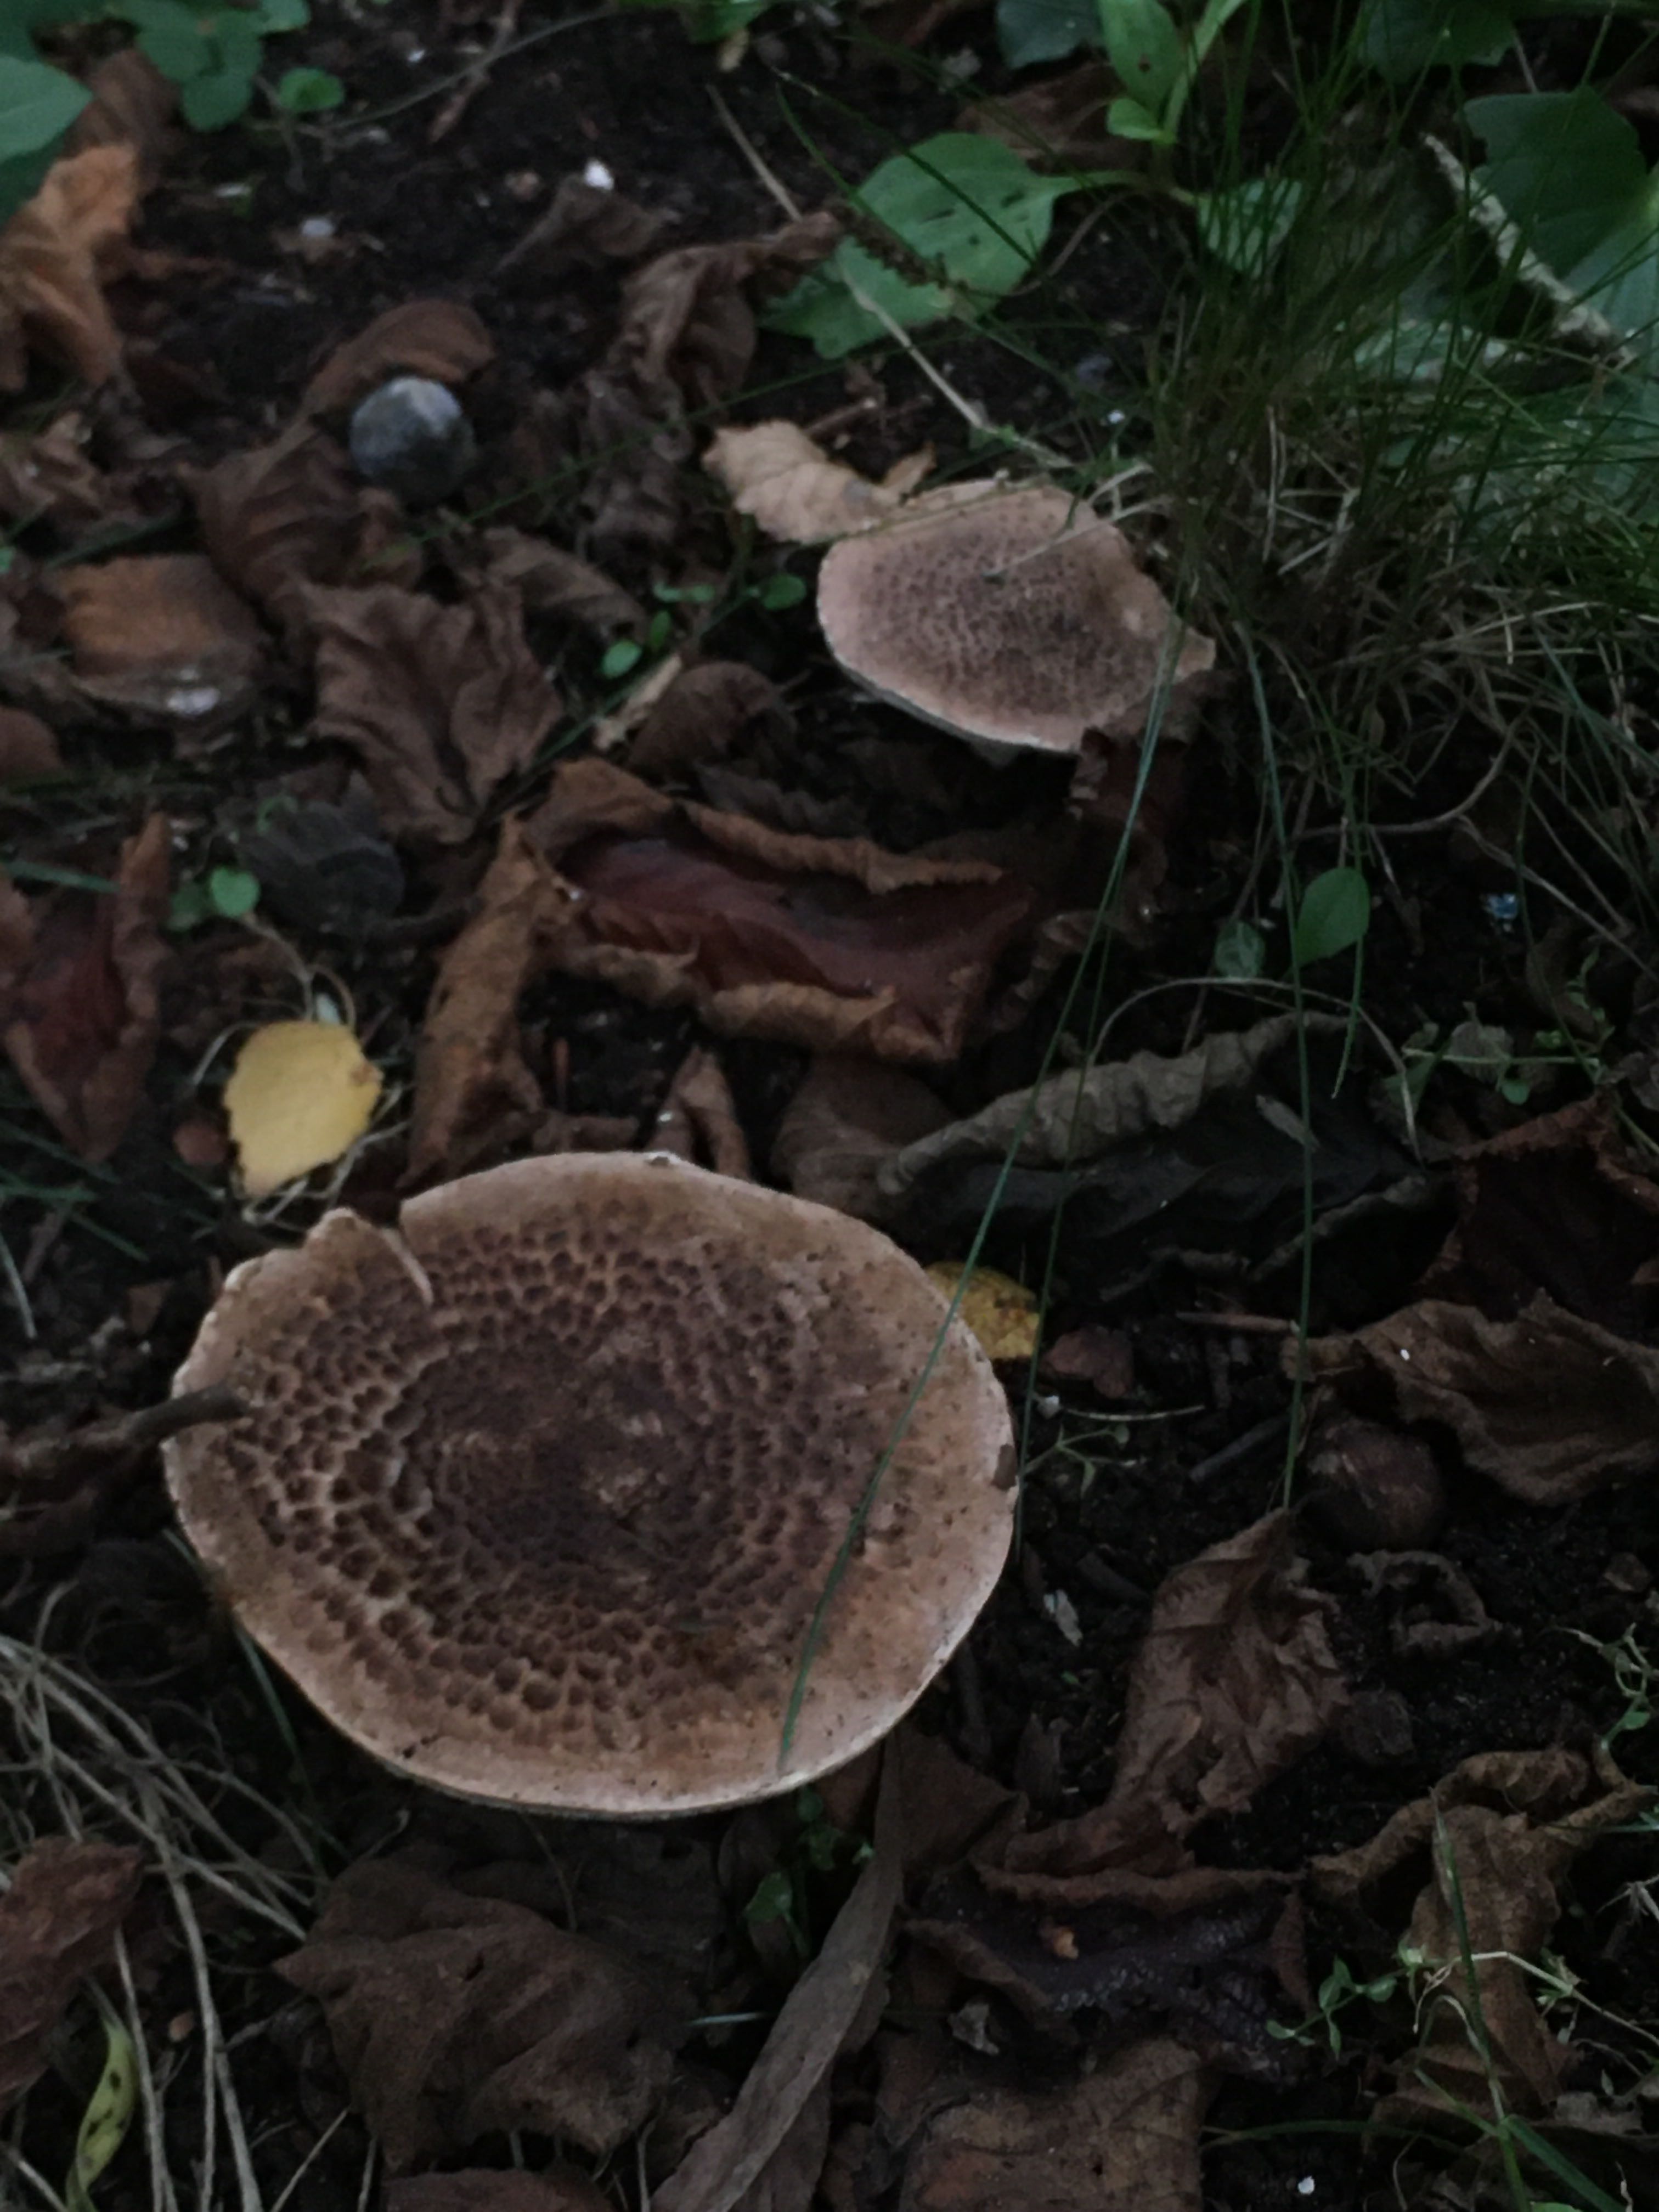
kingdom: Fungi
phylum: Basidiomycota
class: Agaricomycetes
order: Agaricales
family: Agaricaceae
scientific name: Agaricaceae
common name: champignonfamilien
